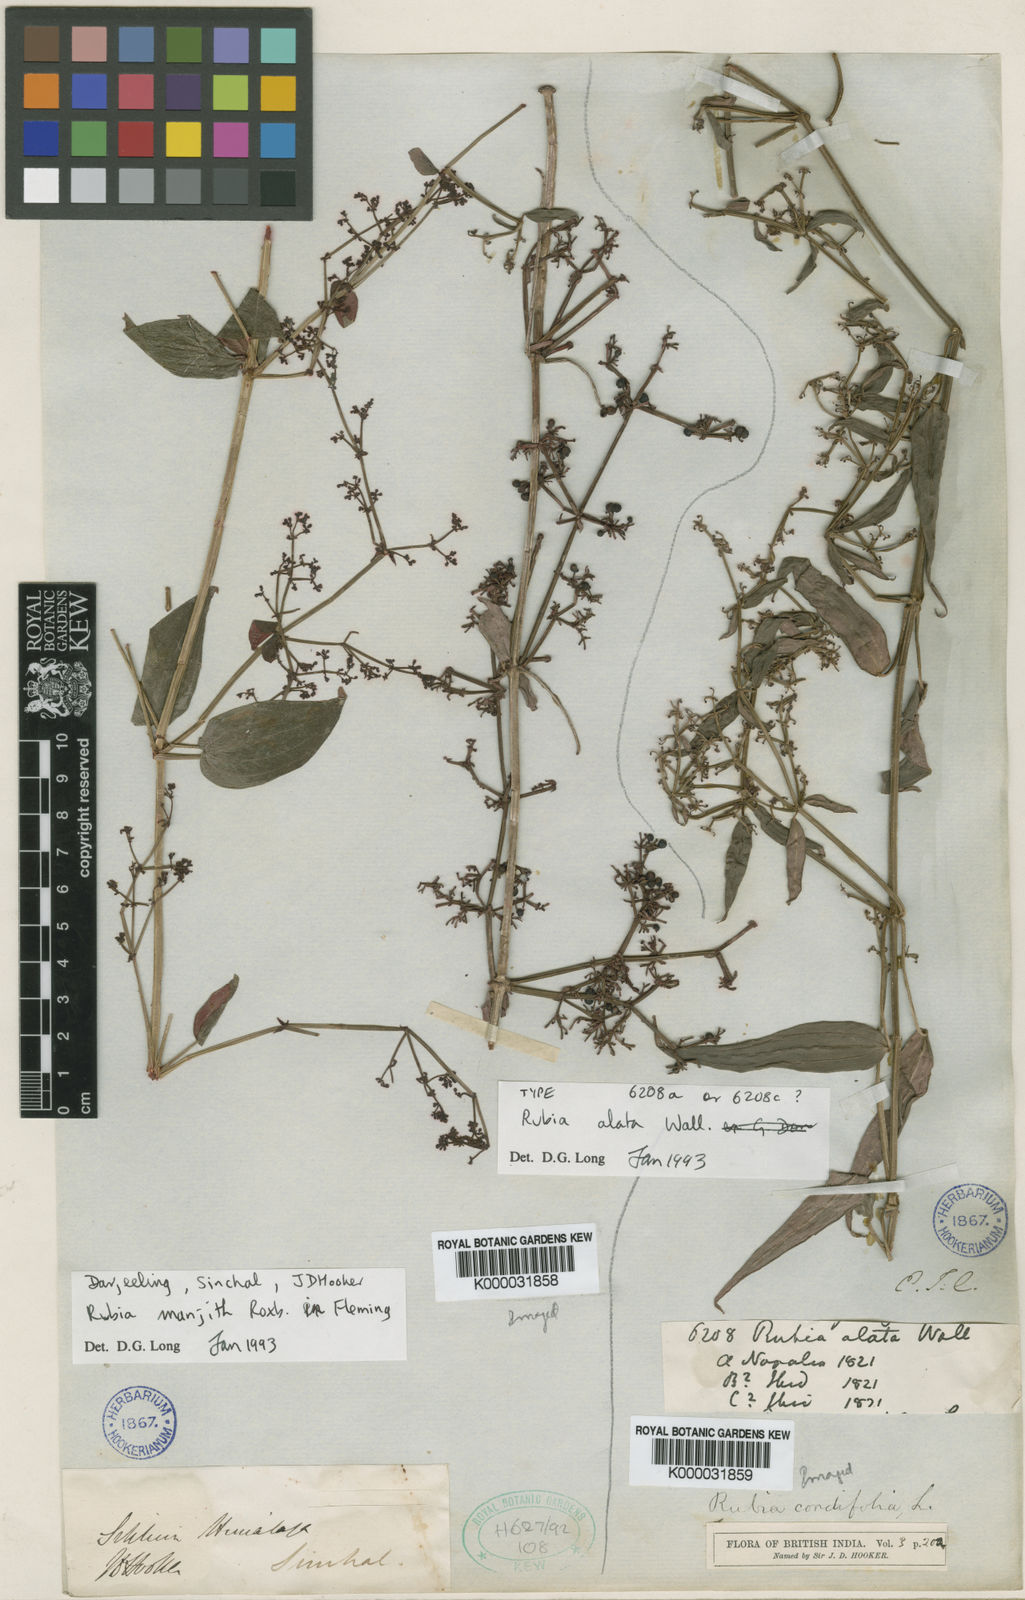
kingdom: Plantae
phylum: Tracheophyta
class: Magnoliopsida
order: Gentianales
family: Rubiaceae
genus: Rubia
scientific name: Rubia manjith
